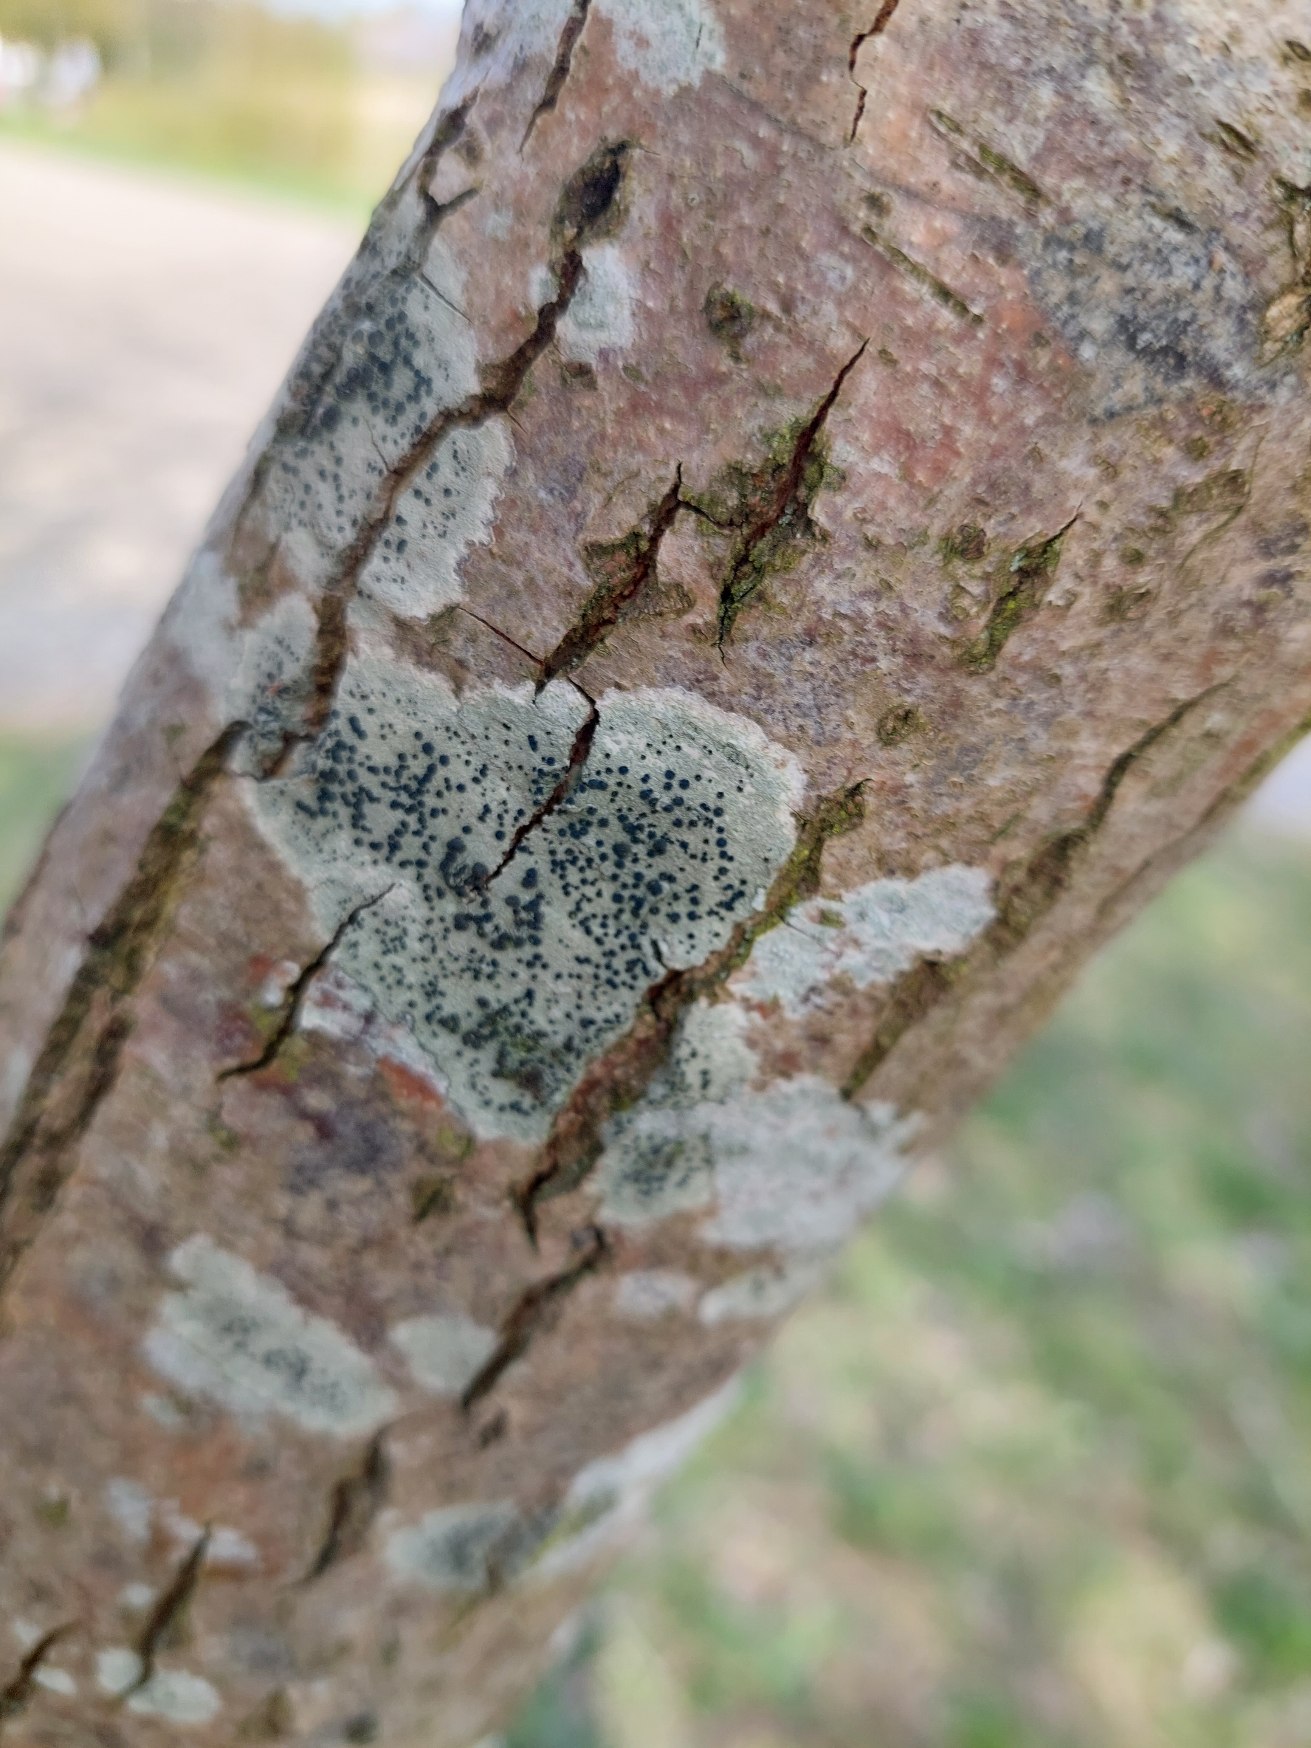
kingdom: Fungi
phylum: Ascomycota
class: Lecanoromycetes
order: Lecanorales
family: Lecanoraceae
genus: Lecidella
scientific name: Lecidella elaeochroma
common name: Grågrøn skivelav
